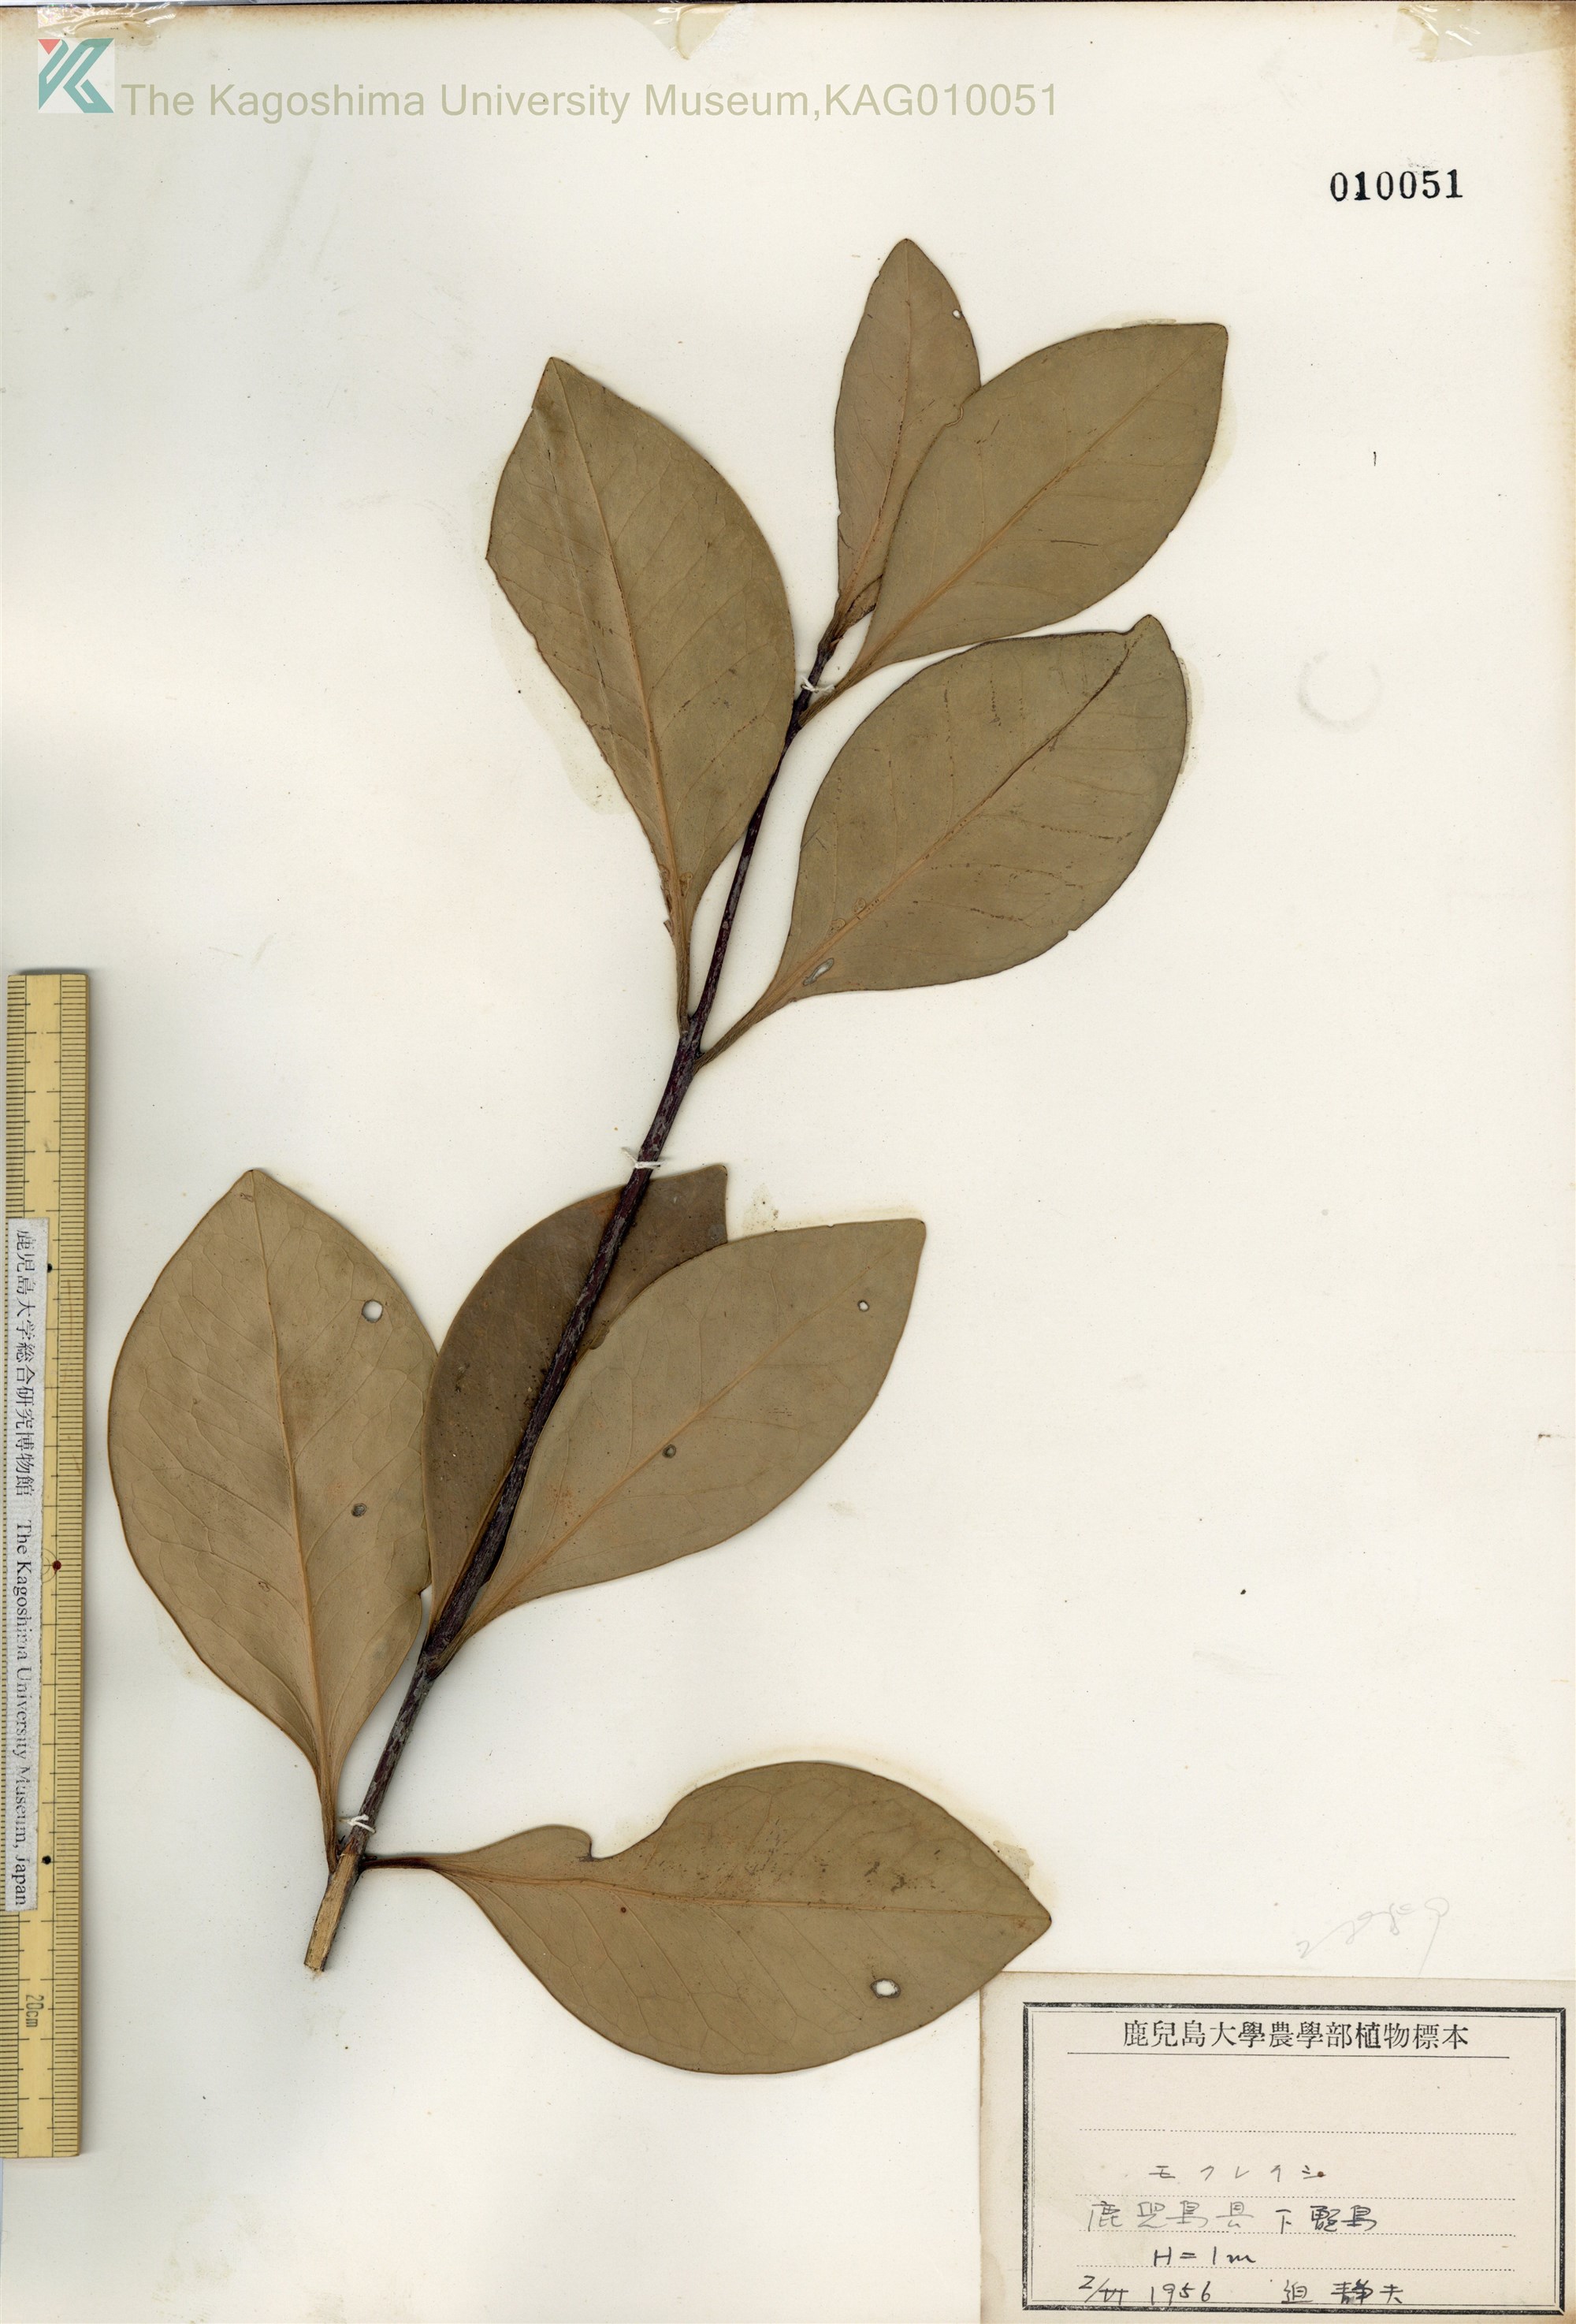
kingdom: Plantae
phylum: Tracheophyta
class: Magnoliopsida
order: Celastrales
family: Celastraceae
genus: Microtropis
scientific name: Microtropis japonica
